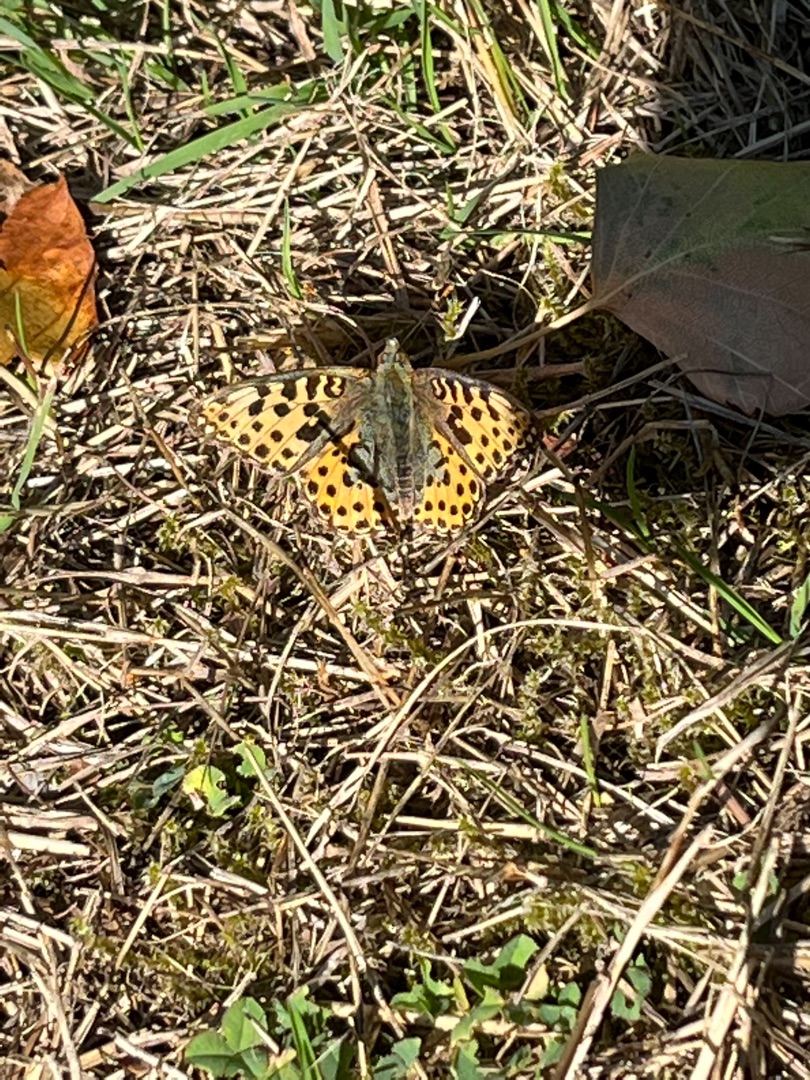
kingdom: Animalia
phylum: Arthropoda
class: Insecta
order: Lepidoptera
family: Nymphalidae
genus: Issoria
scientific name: Issoria lathonia
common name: Storplettet perlemorsommerfugl
